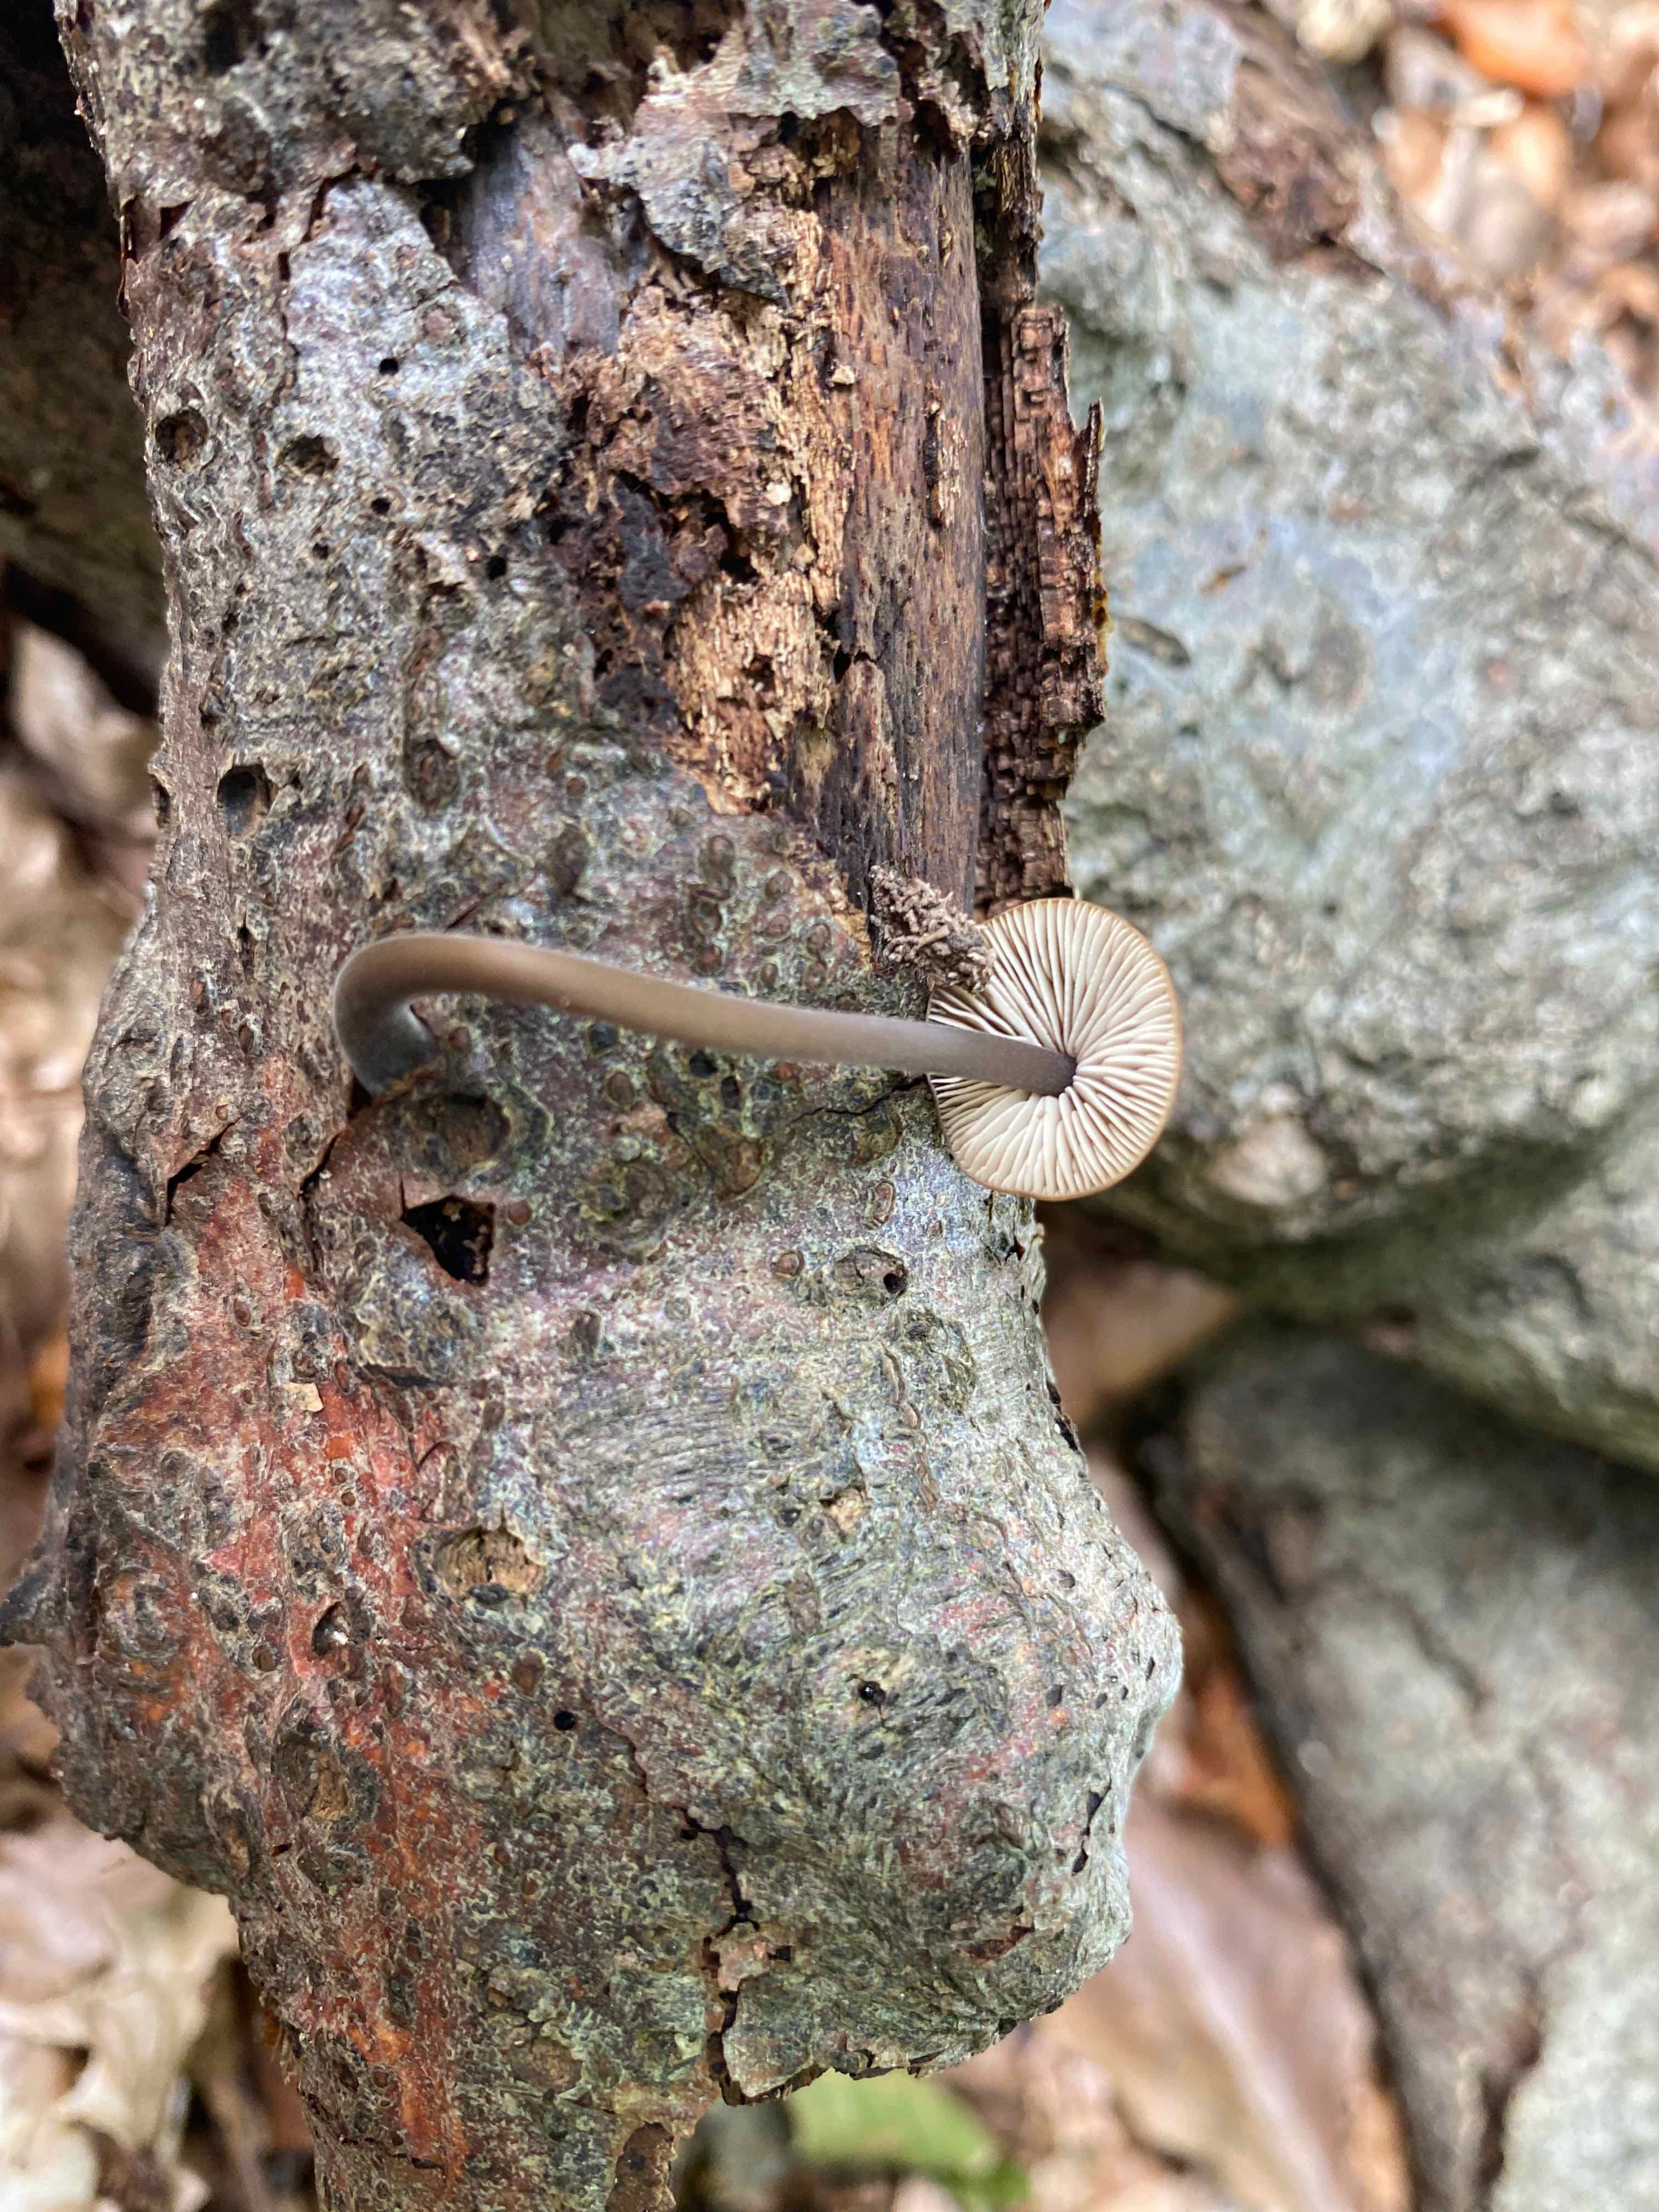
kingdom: Fungi
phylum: Basidiomycota
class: Agaricomycetes
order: Agaricales
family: Omphalotaceae
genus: Mycetinis
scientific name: Mycetinis alliaceus
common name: stor løghat
